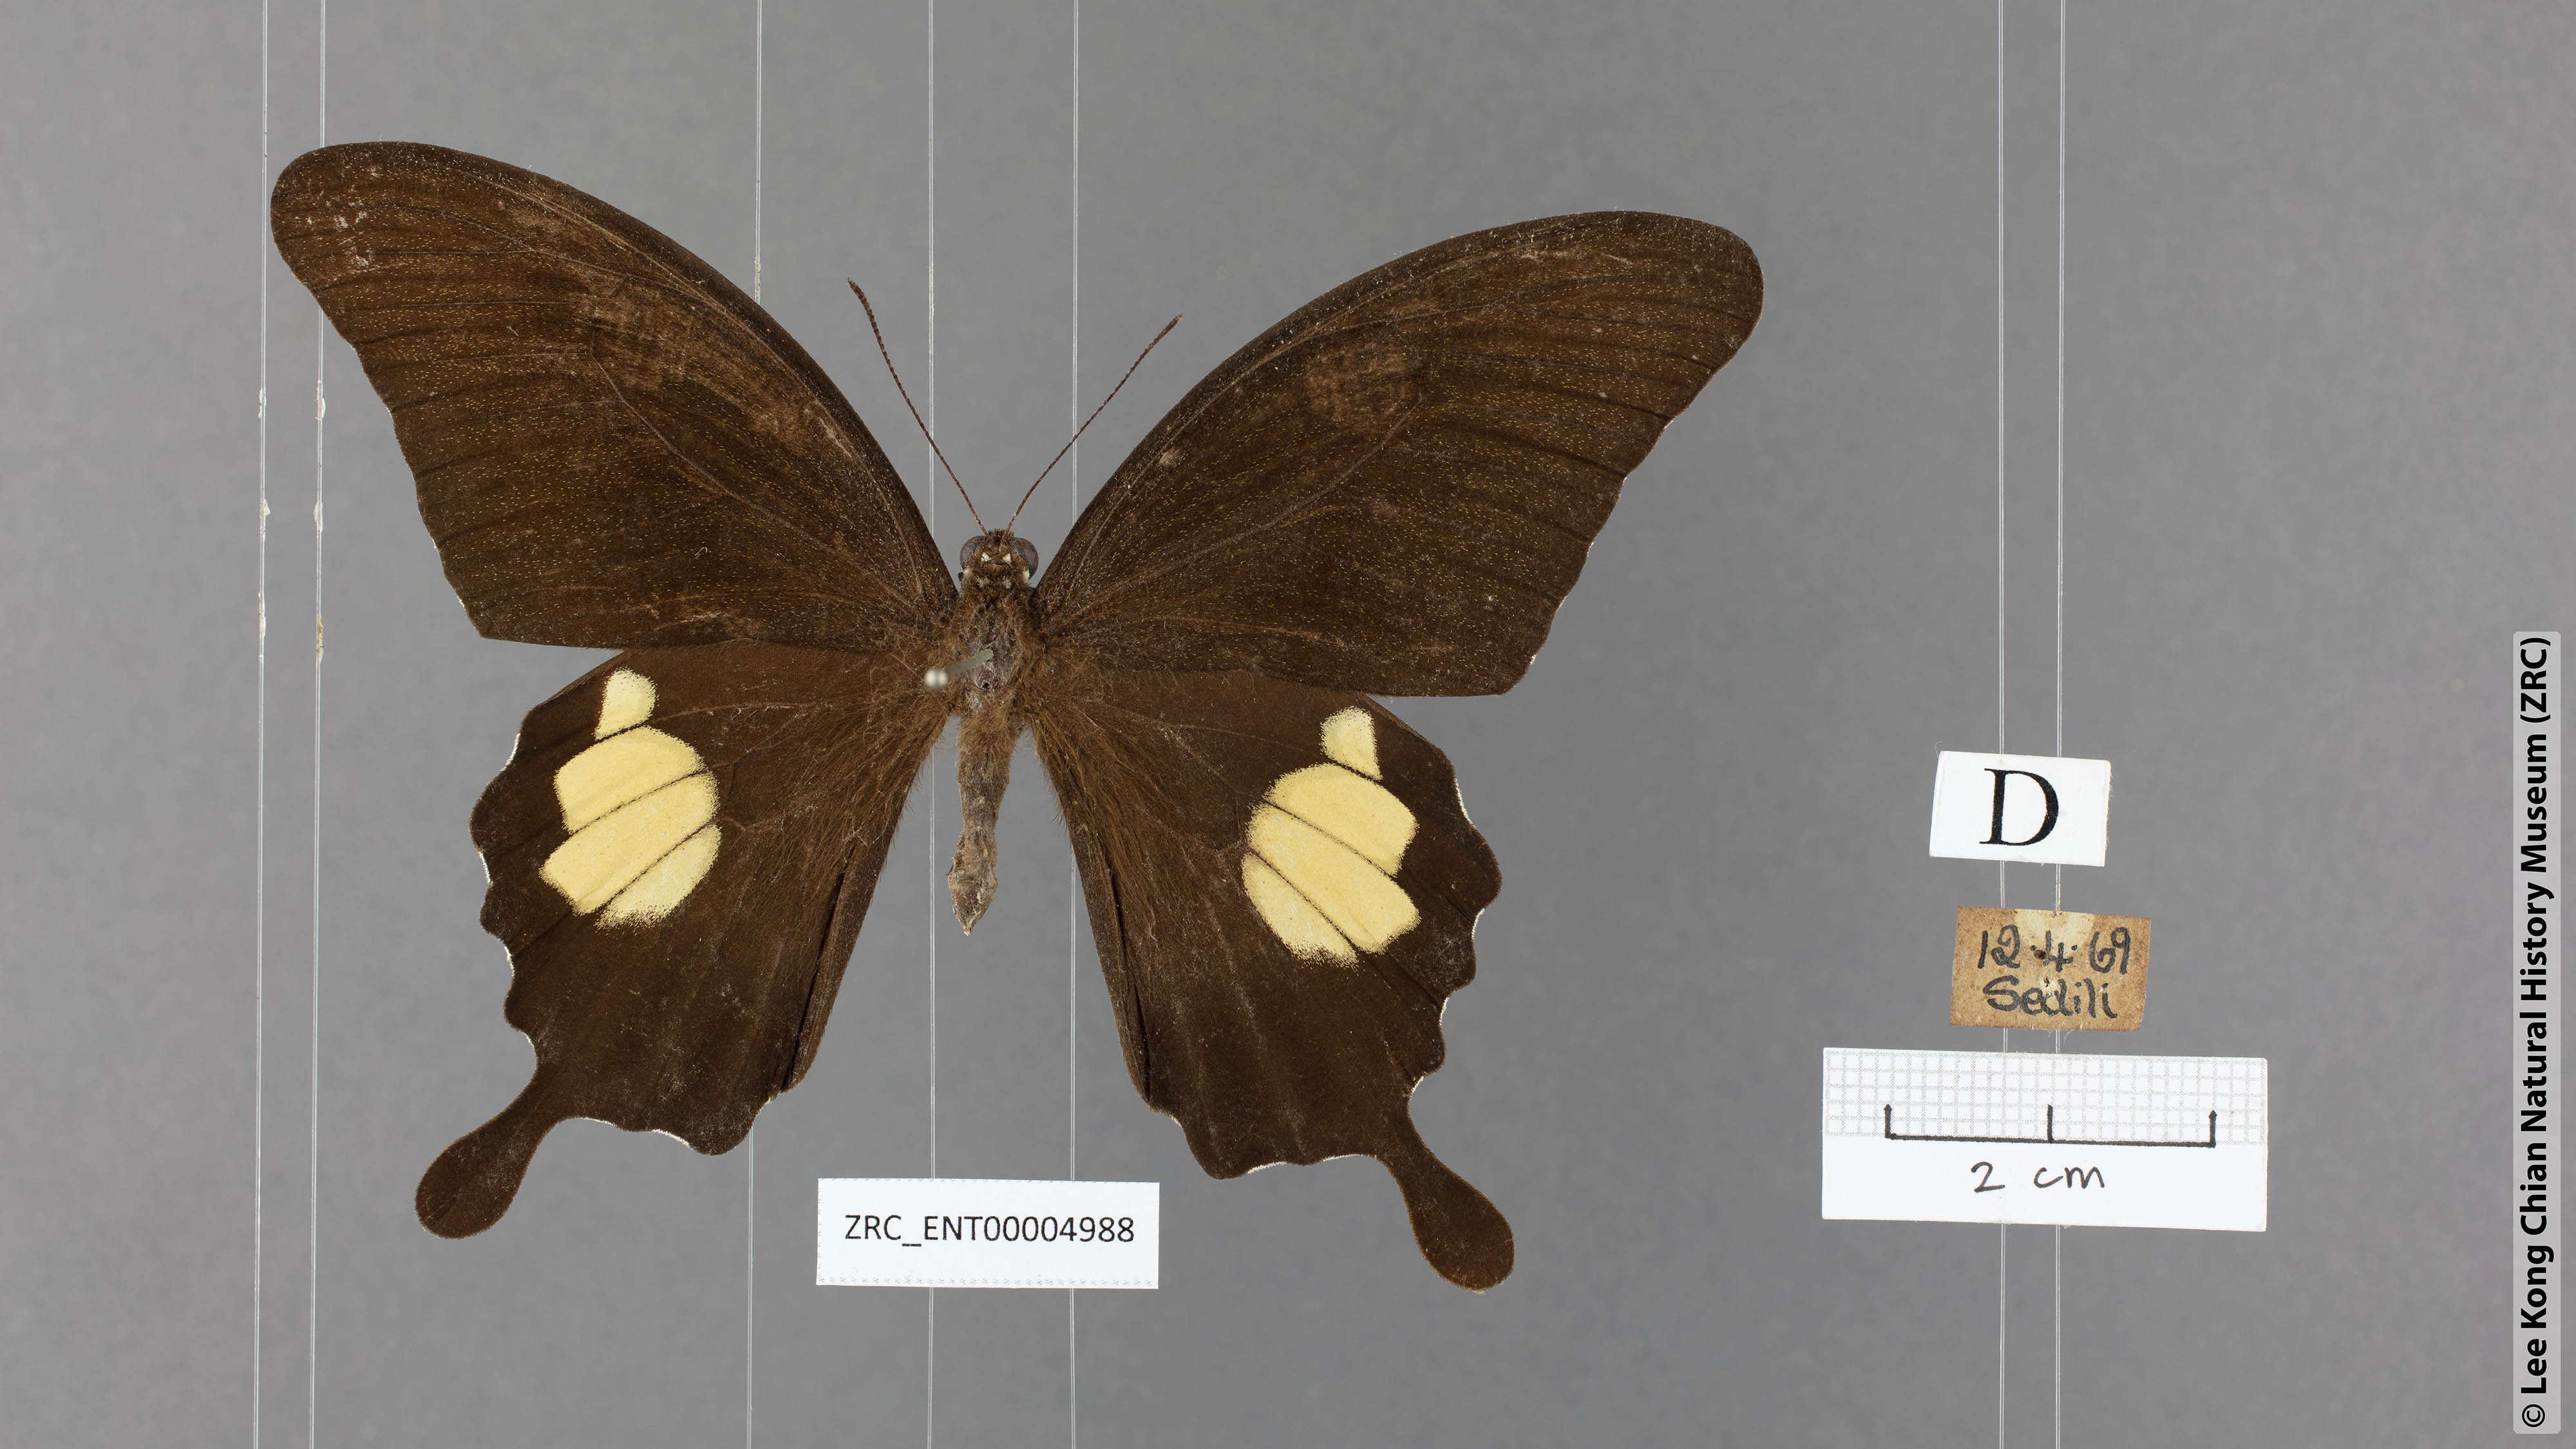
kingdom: Animalia
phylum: Arthropoda
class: Insecta
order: Lepidoptera
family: Papilionidae
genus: Papilio
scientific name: Papilio prexaspes
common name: Blue helen swallowtail
